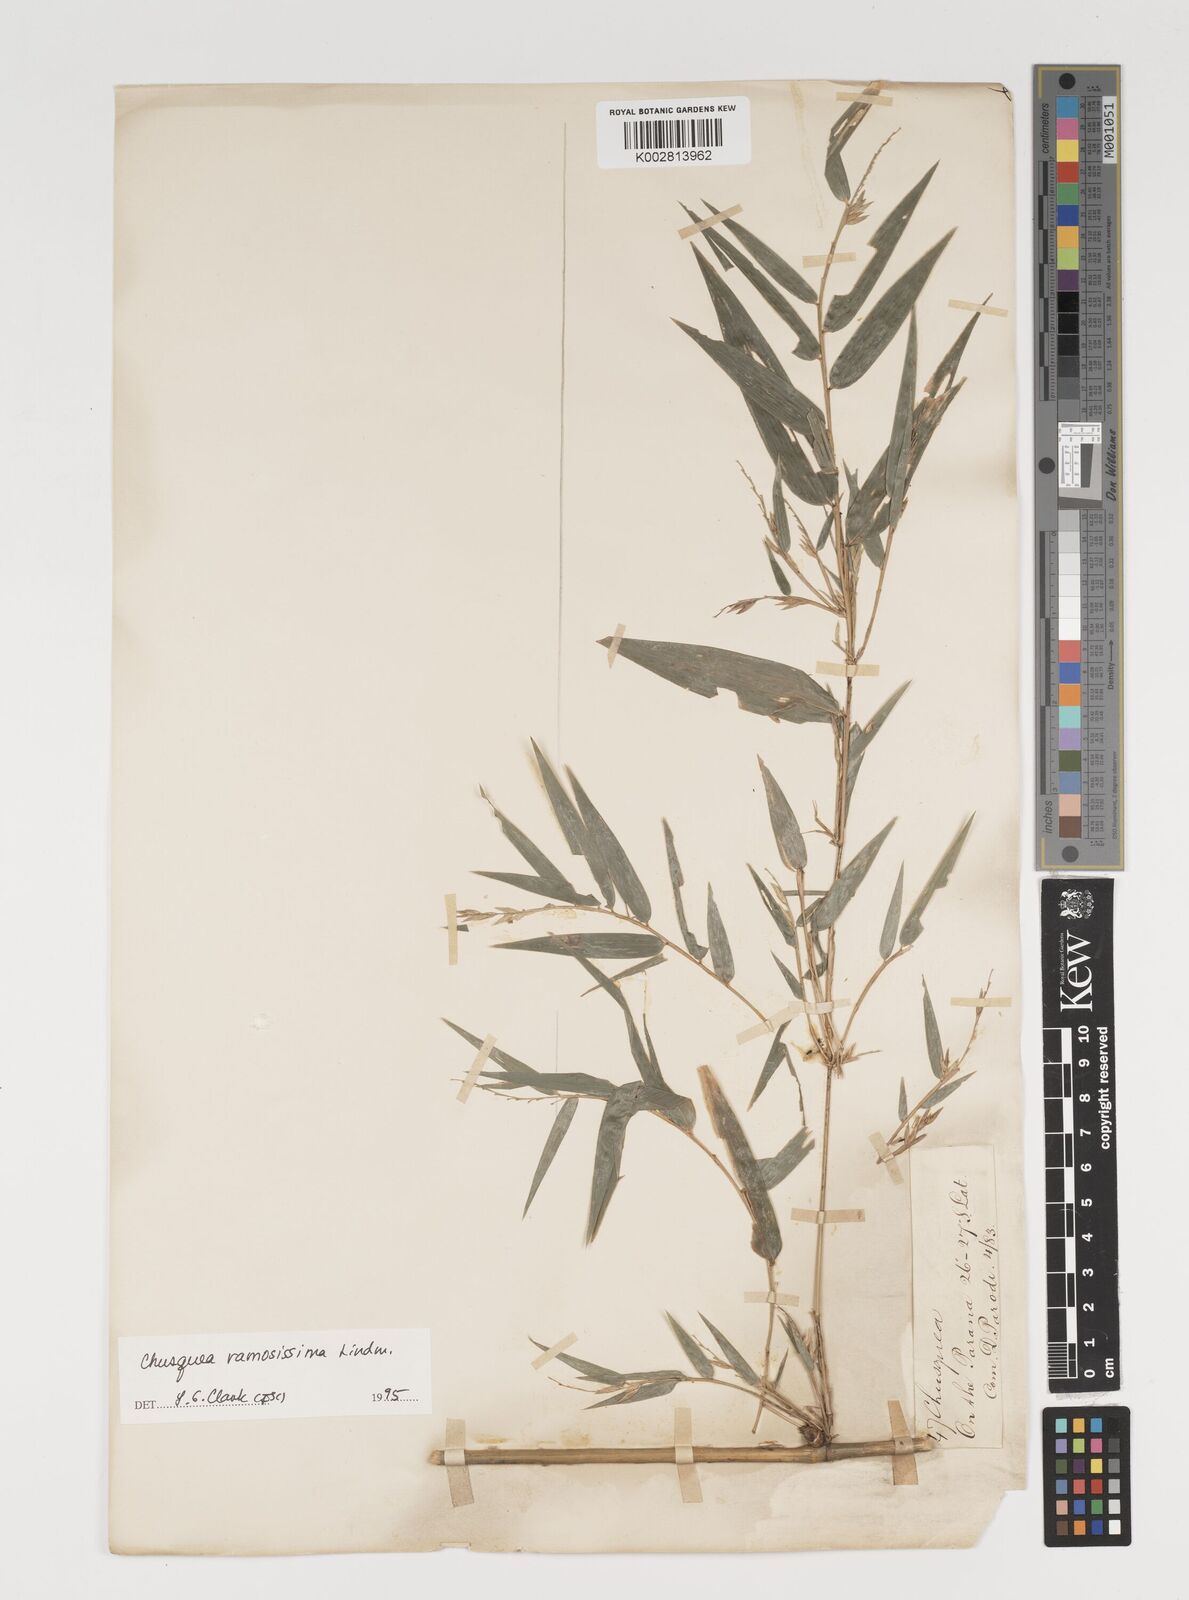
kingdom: Plantae
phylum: Tracheophyta
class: Liliopsida
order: Poales
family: Poaceae
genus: Chusquea
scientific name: Chusquea ramosissima
